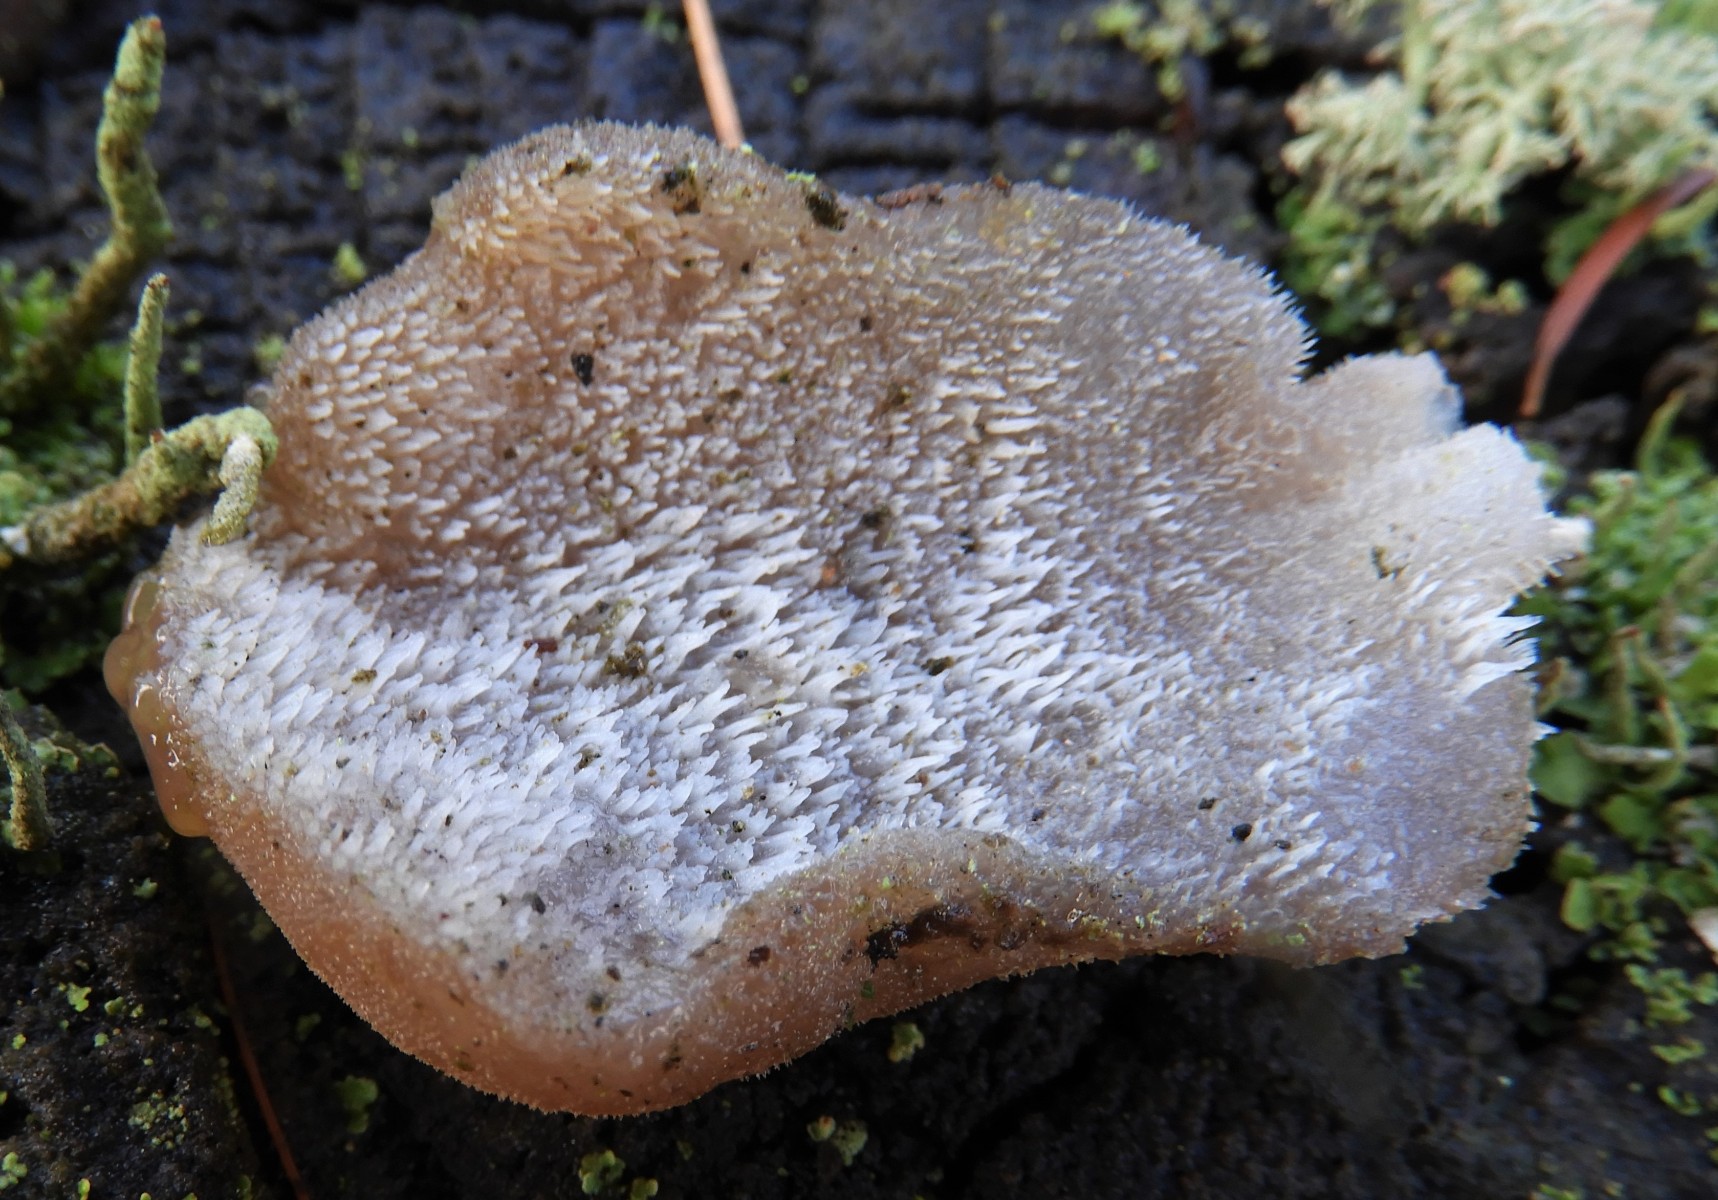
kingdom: Fungi
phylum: Basidiomycota
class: Agaricomycetes
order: Auriculariales
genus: Pseudohydnum
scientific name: Pseudohydnum gelatinosum
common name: bævretand
